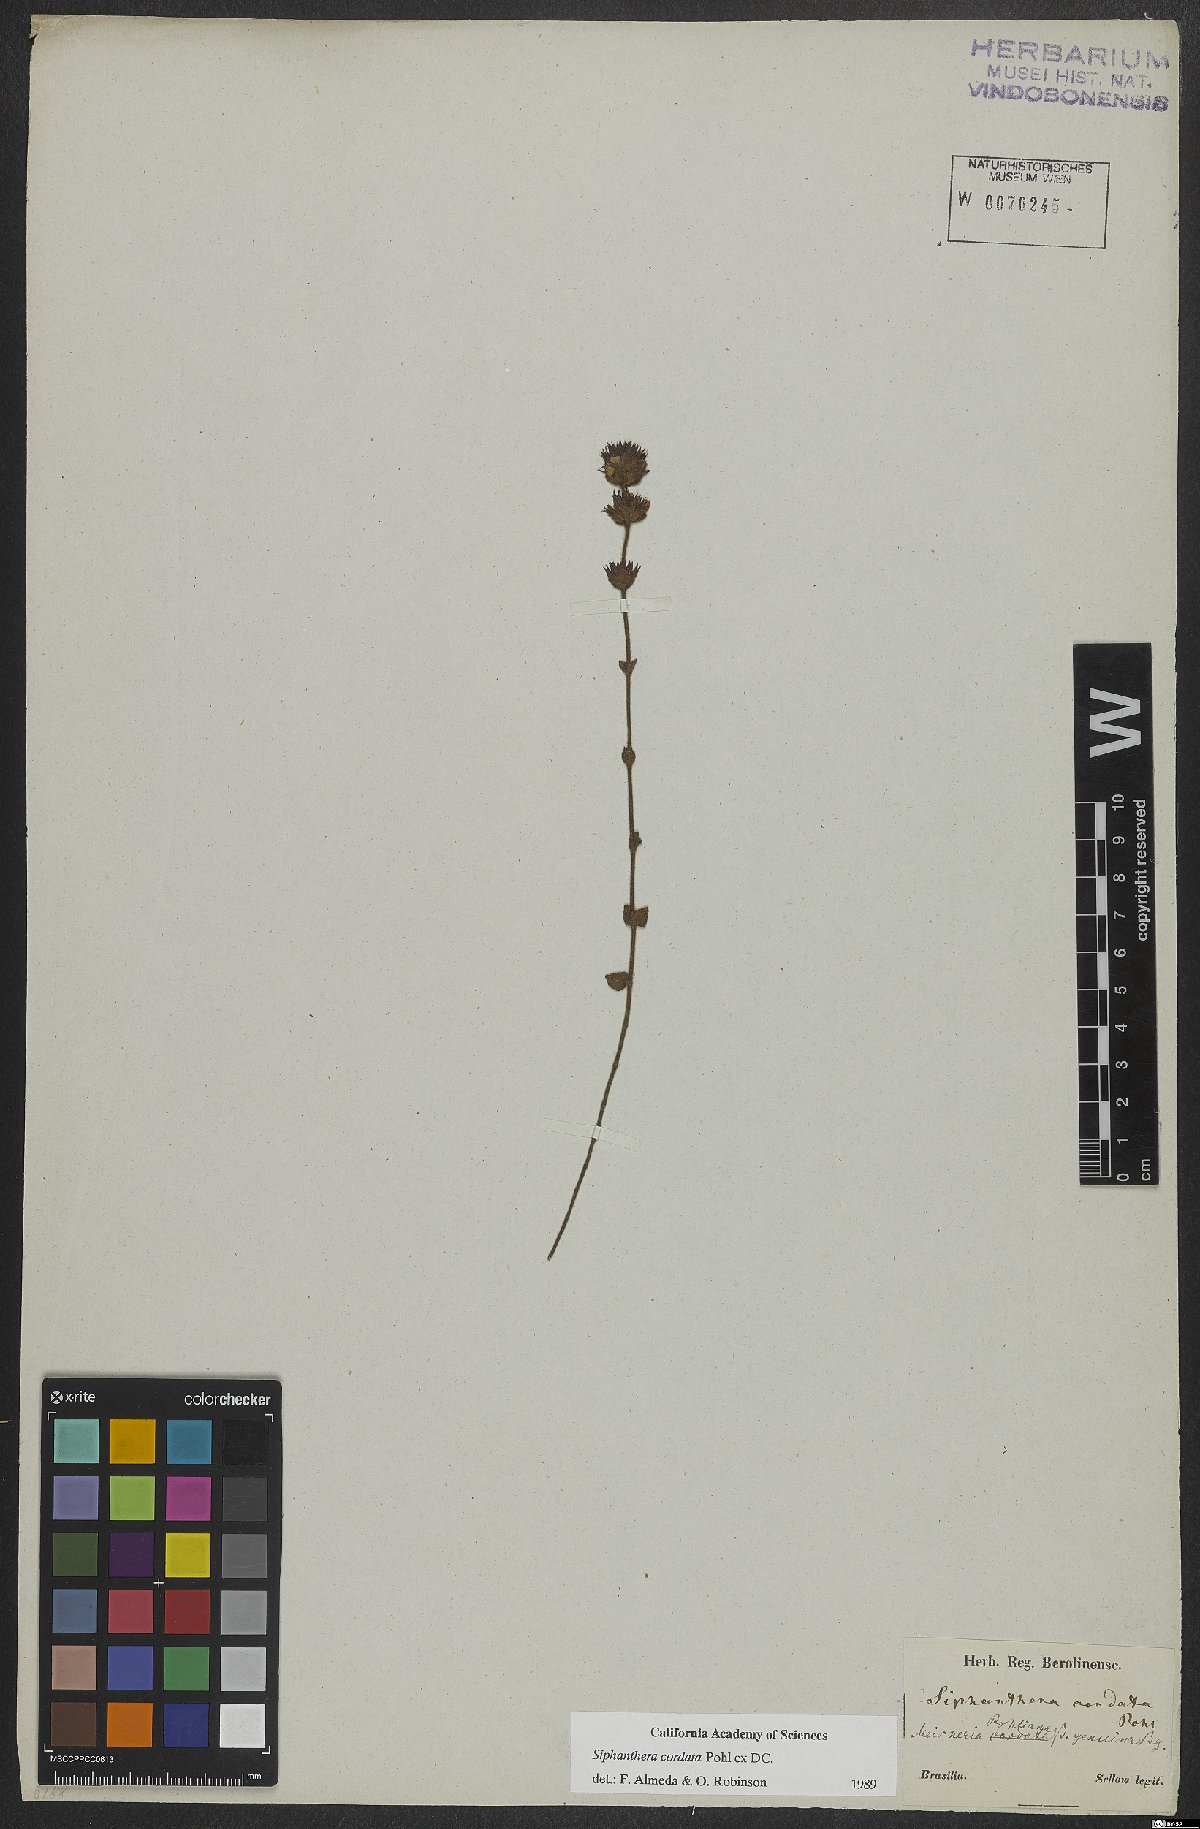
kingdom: Plantae
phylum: Tracheophyta
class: Magnoliopsida
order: Myrtales
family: Melastomataceae
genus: Siphanthera
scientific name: Siphanthera cordata
